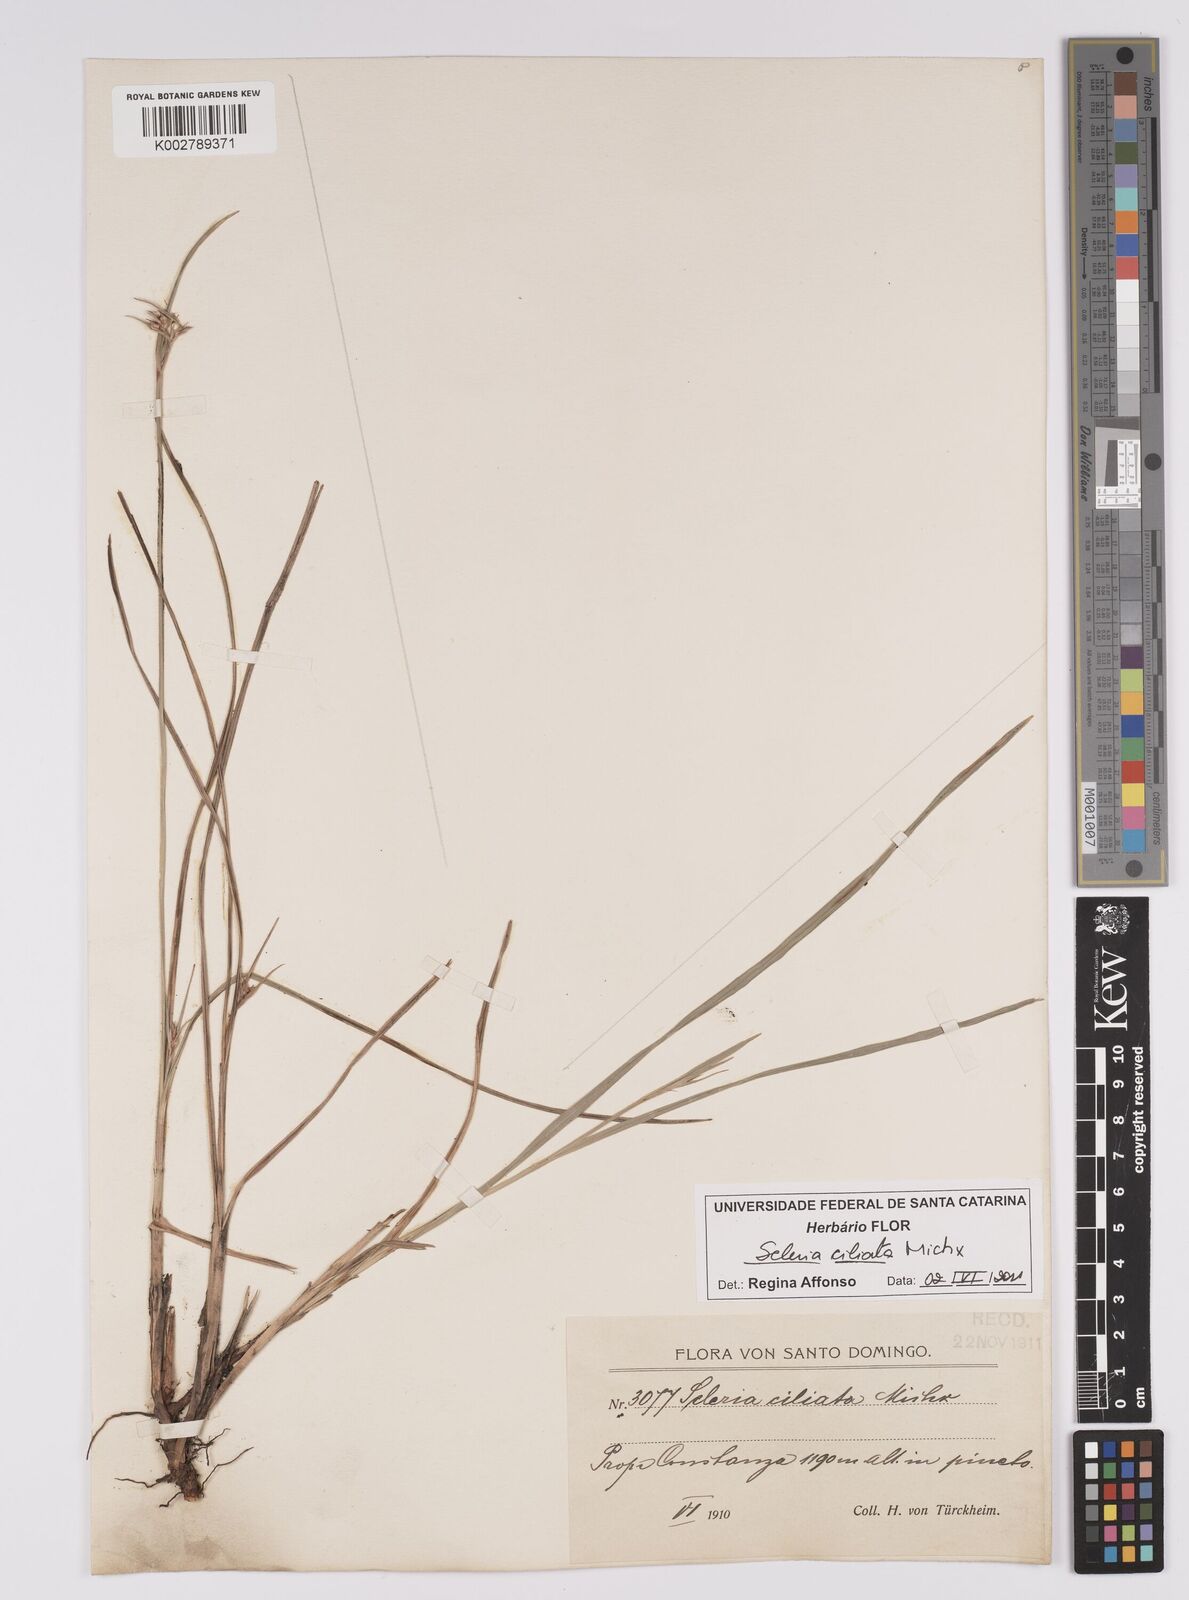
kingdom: Plantae
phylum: Tracheophyta
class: Liliopsida
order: Poales
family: Cyperaceae
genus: Scleria
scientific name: Scleria ciliata
